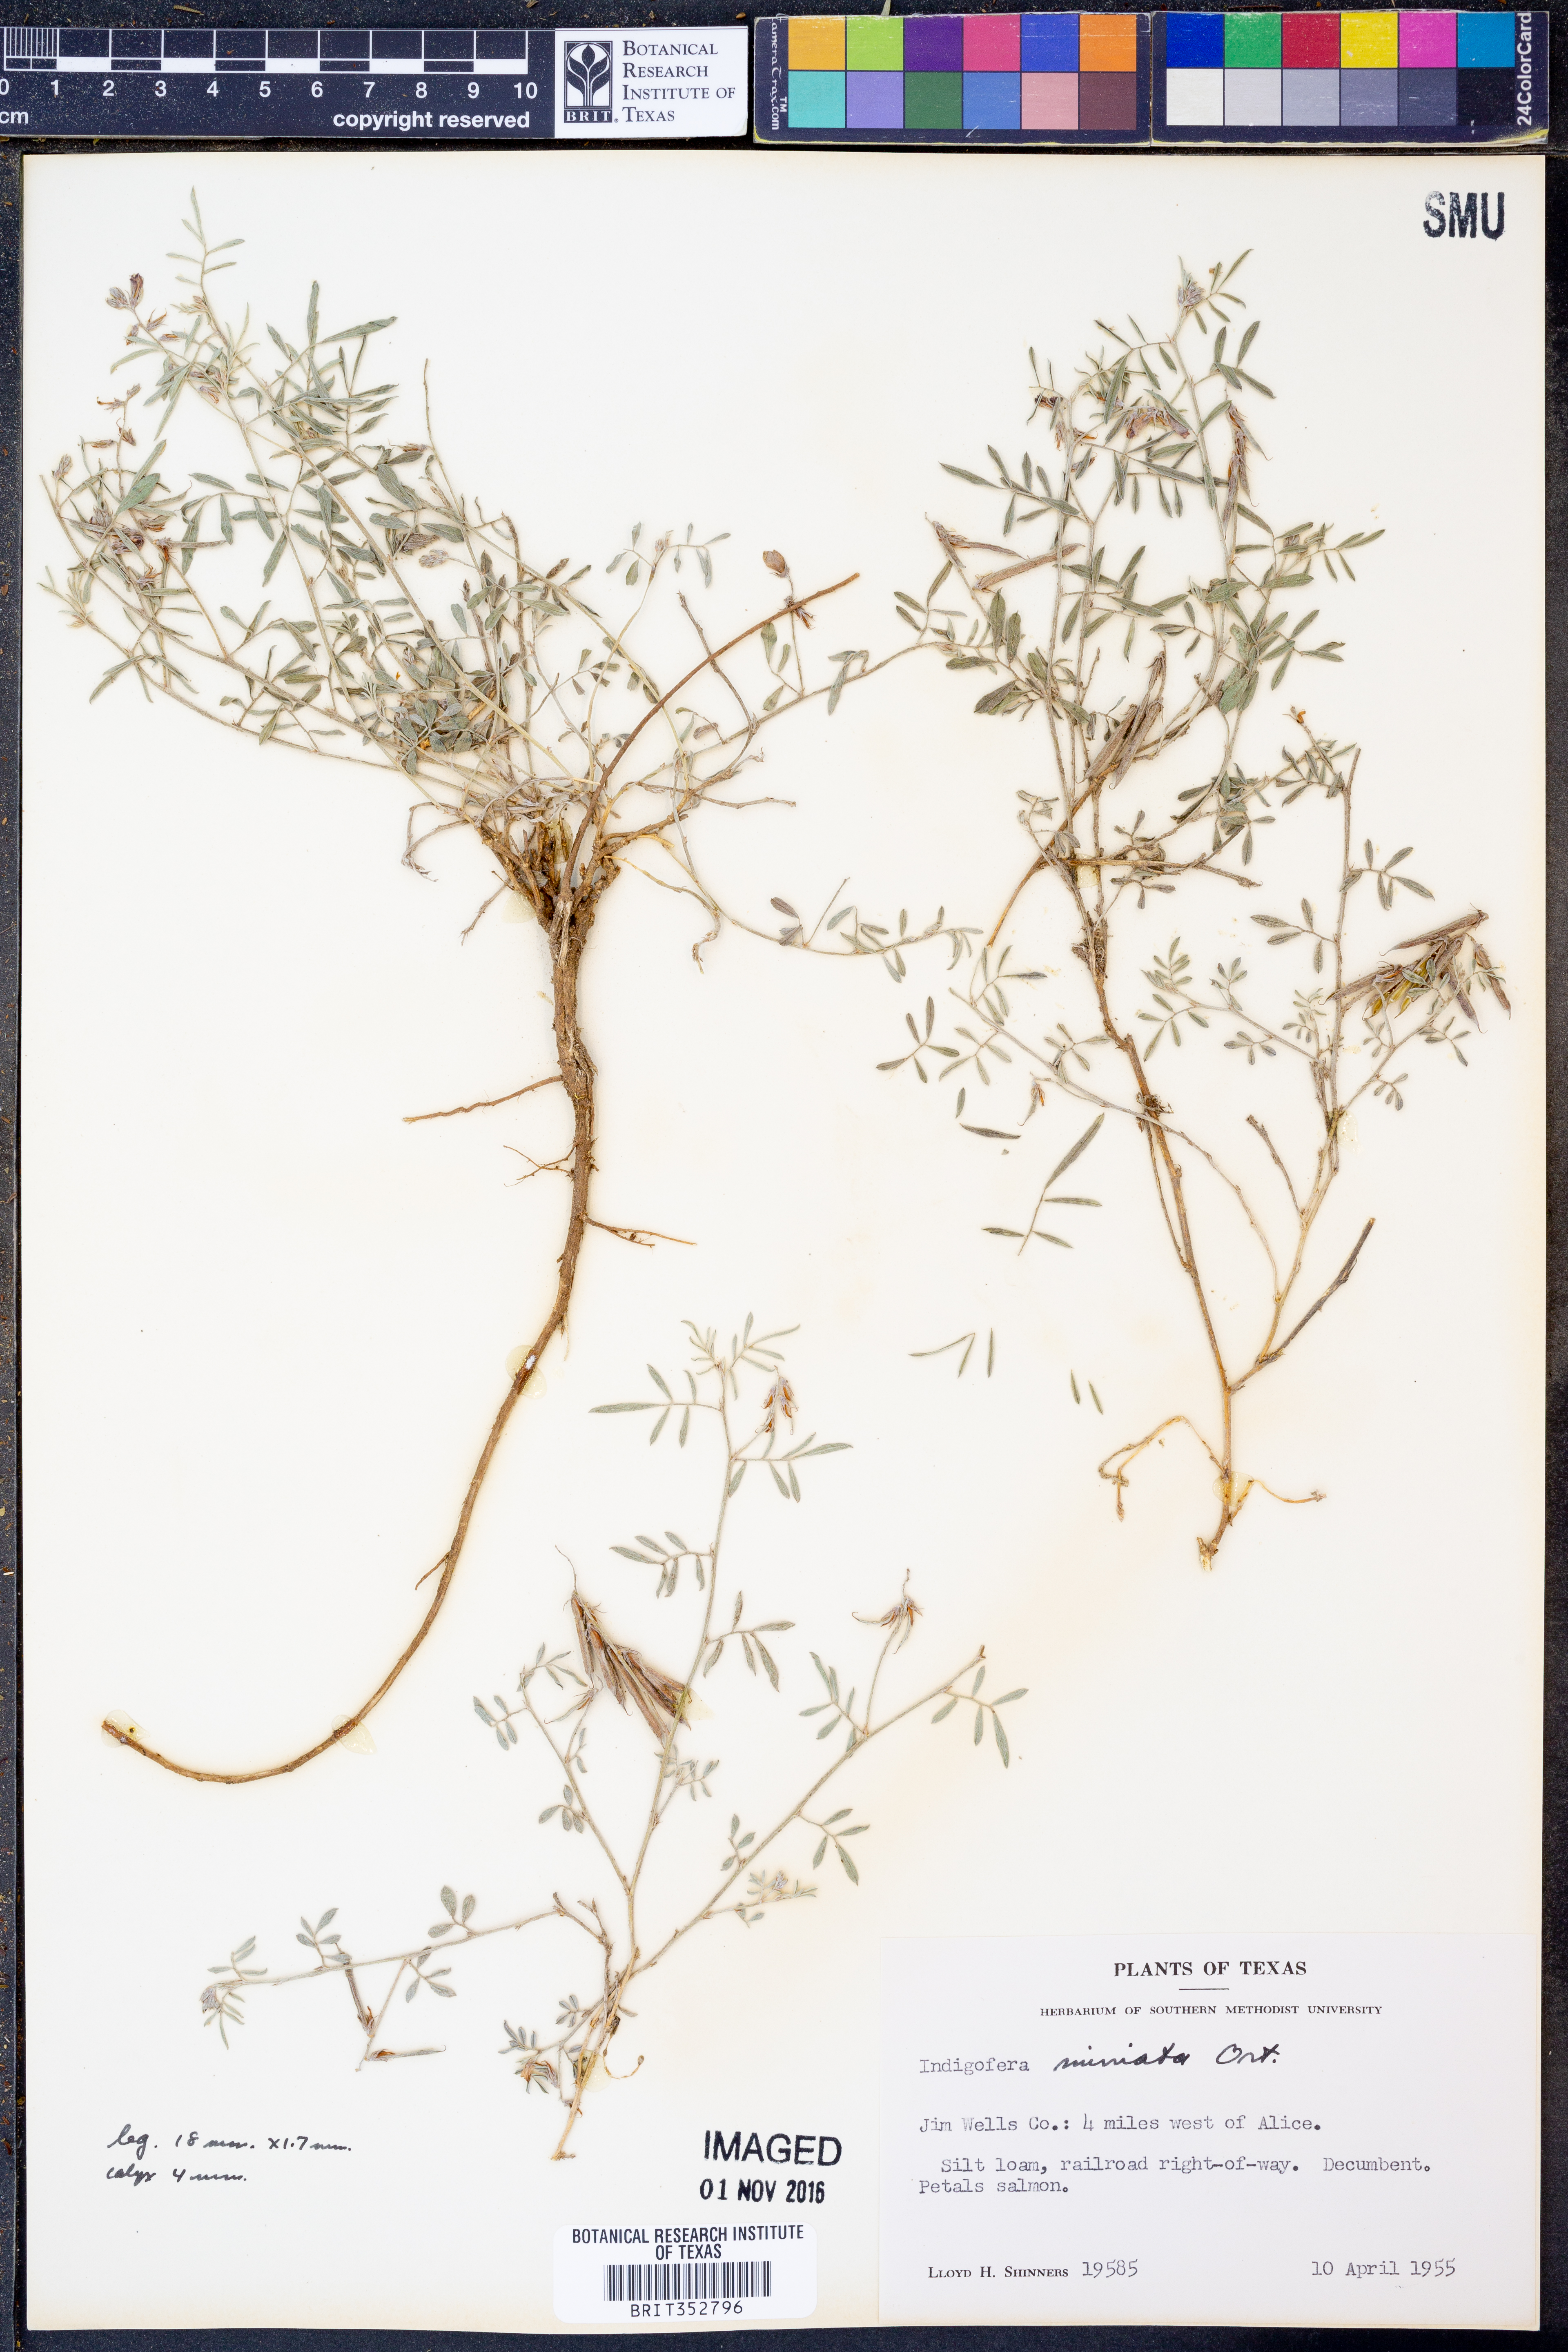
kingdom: Plantae
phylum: Tracheophyta
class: Magnoliopsida
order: Fabales
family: Fabaceae
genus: Indigofera
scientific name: Indigofera miniata
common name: Coast indigo
